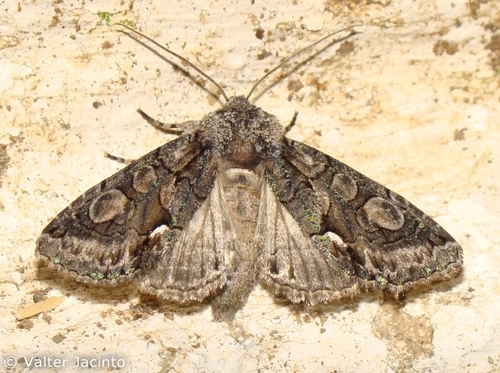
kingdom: Animalia
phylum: Arthropoda
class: Insecta
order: Lepidoptera
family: Noctuidae
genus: Allophyes
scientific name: Allophyes alfaroi
